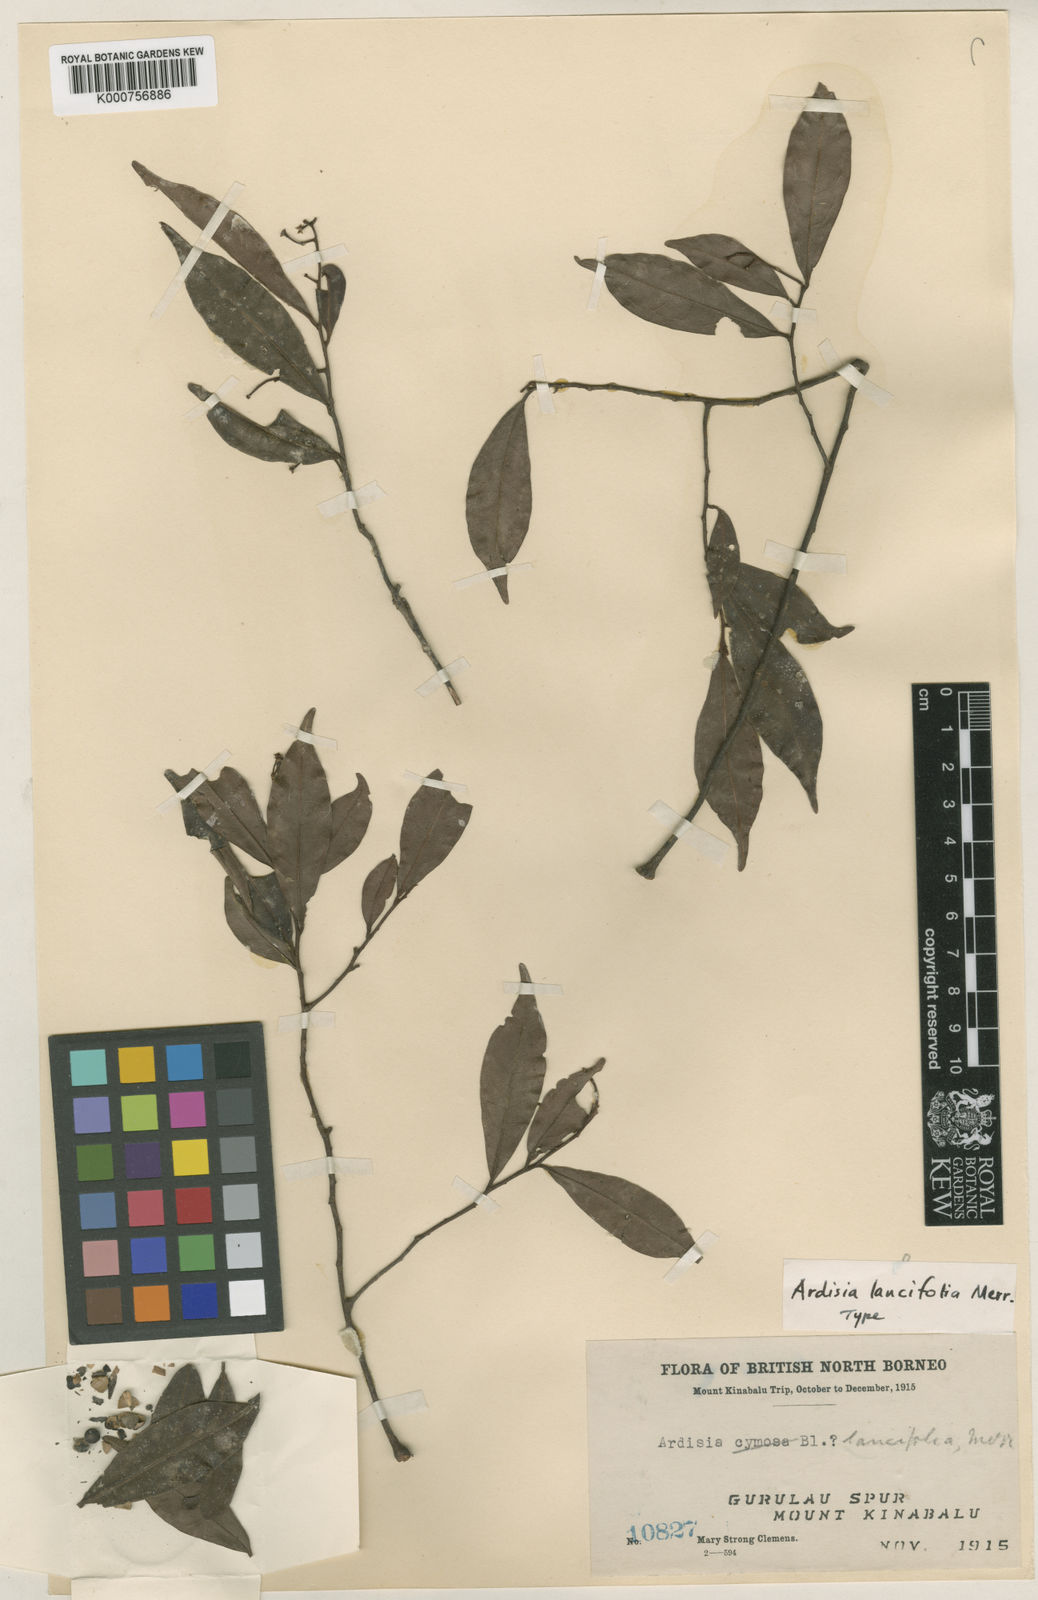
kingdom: Plantae
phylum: Tracheophyta
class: Magnoliopsida
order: Ericales
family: Primulaceae
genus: Ardisia
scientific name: Ardisia
